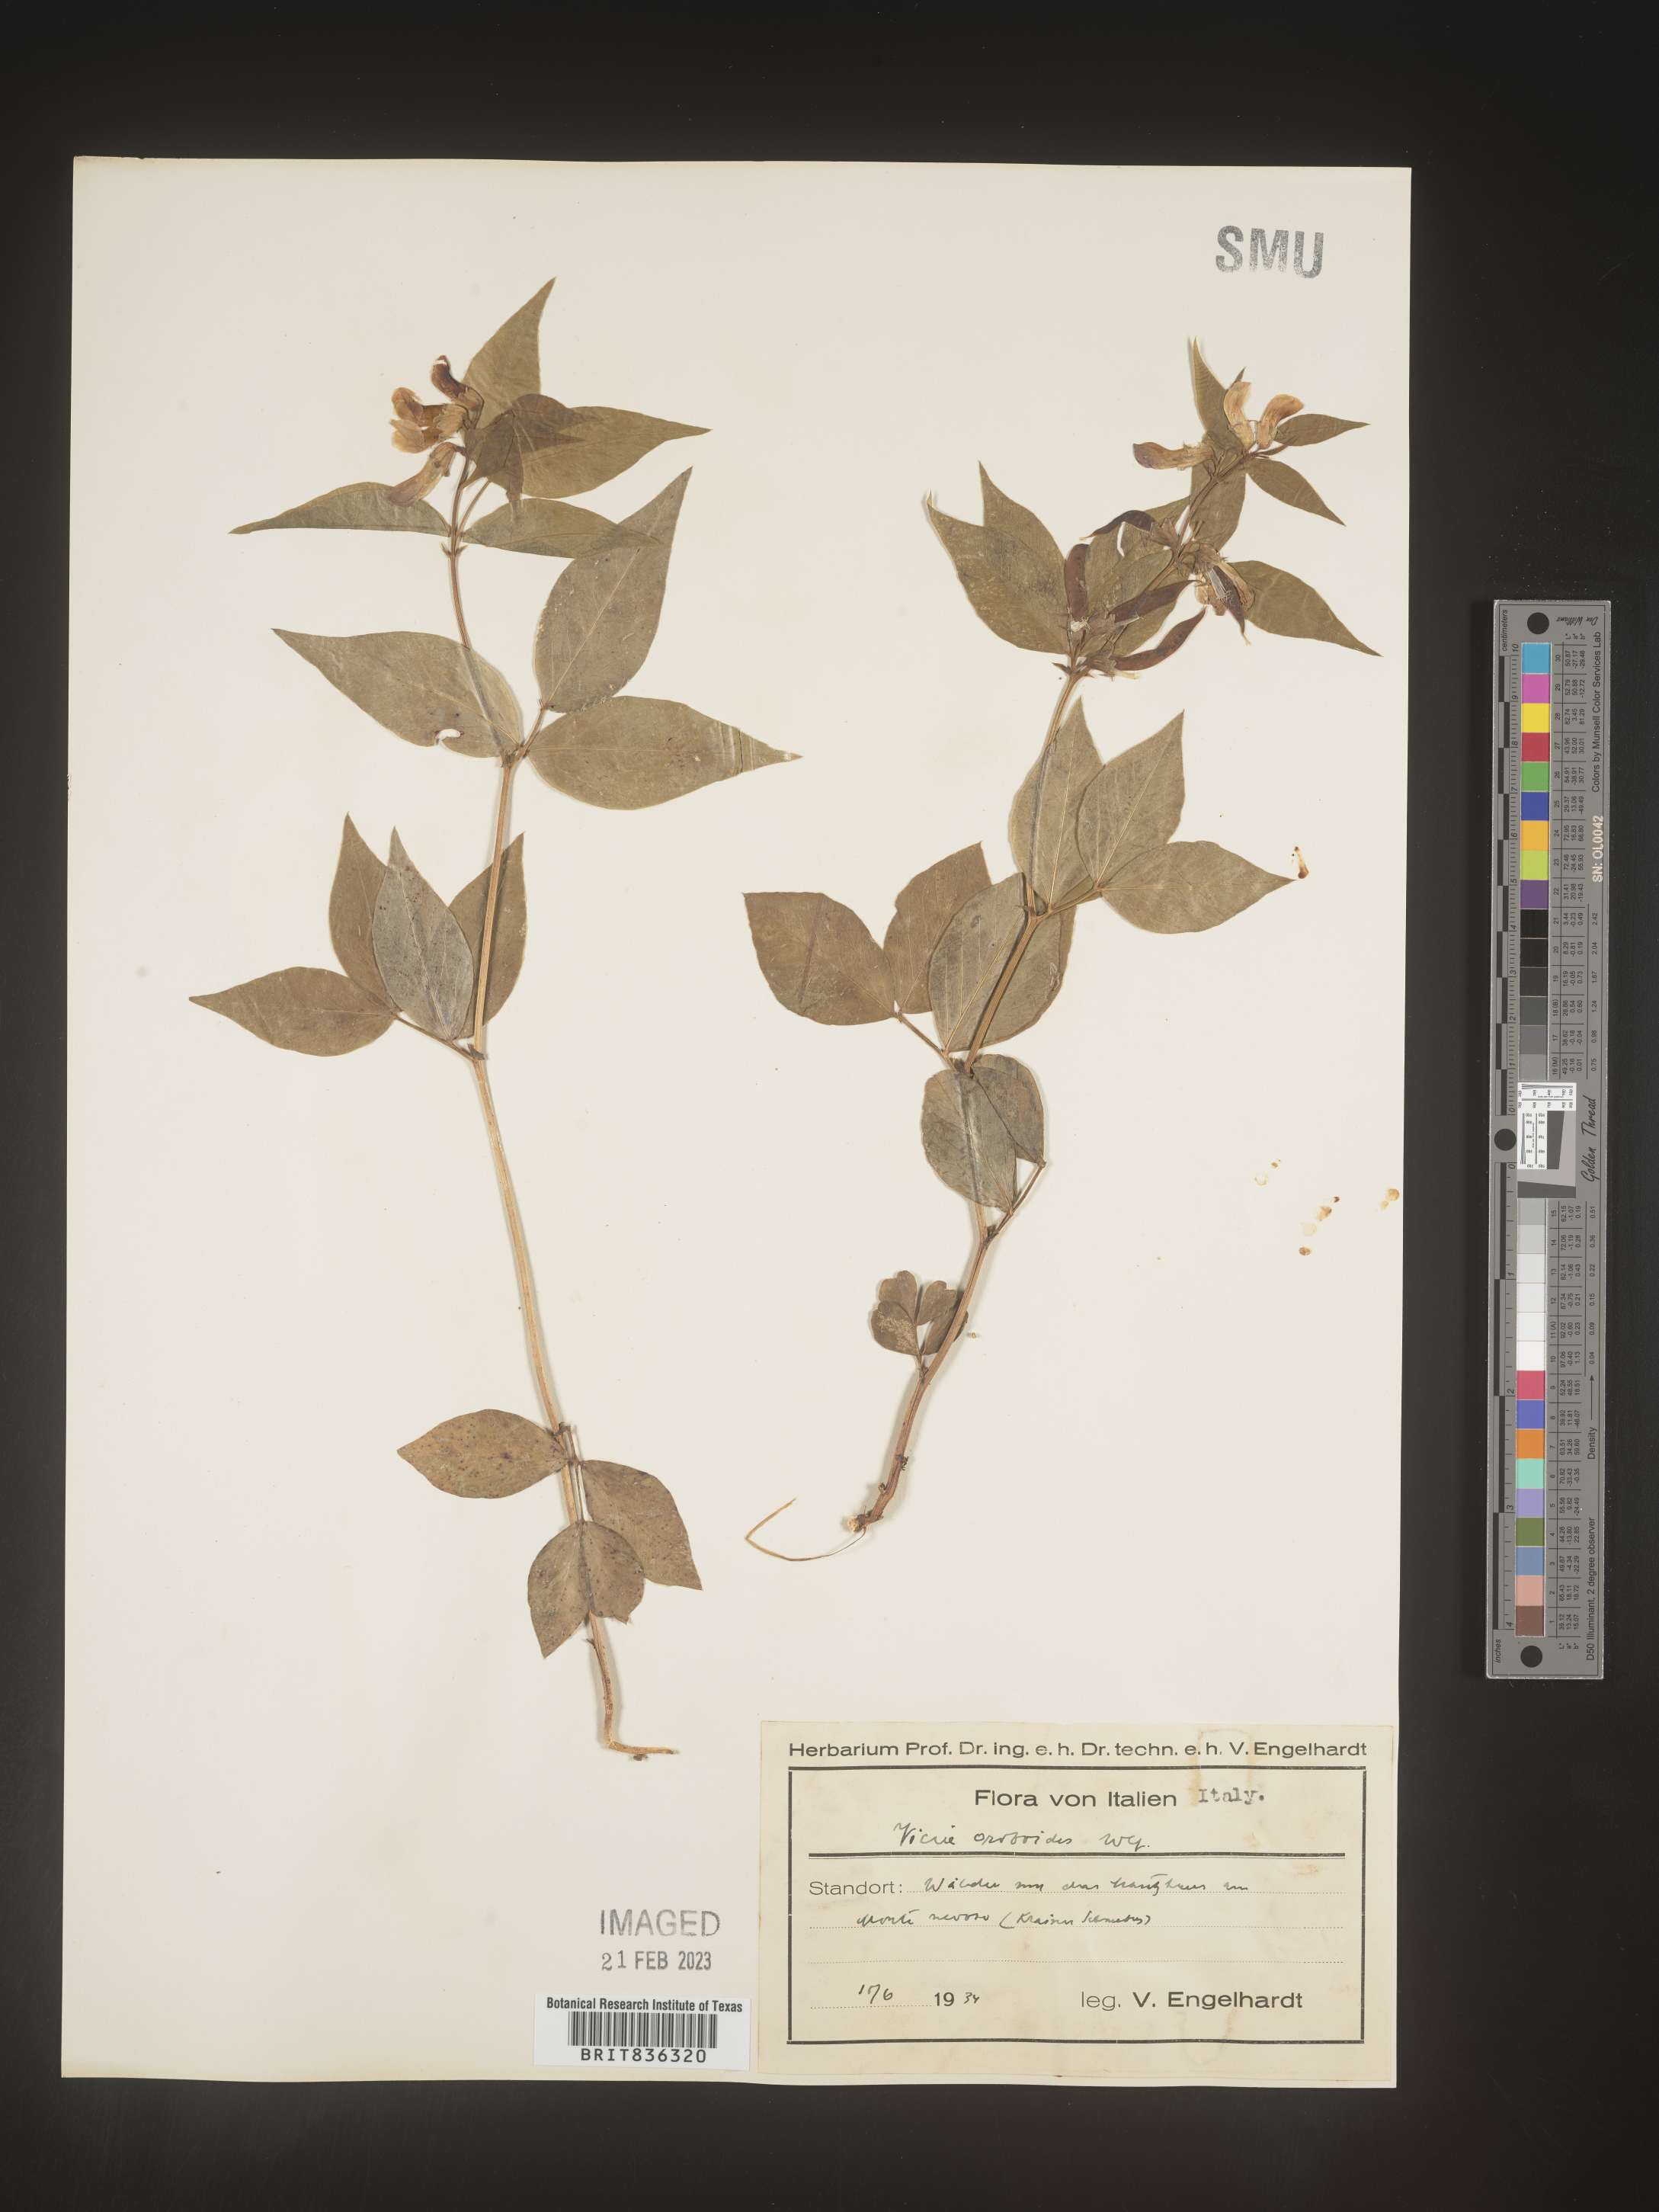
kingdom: Plantae
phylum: Tracheophyta
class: Magnoliopsida
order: Fabales
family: Fabaceae
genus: Vicia
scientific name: Vicia
